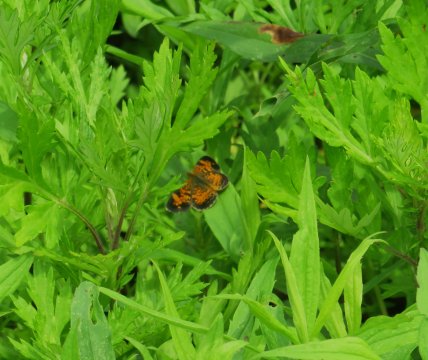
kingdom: Animalia
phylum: Arthropoda
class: Insecta
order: Lepidoptera
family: Nymphalidae
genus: Phyciodes
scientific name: Phyciodes tharos
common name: Pearl Crescent
